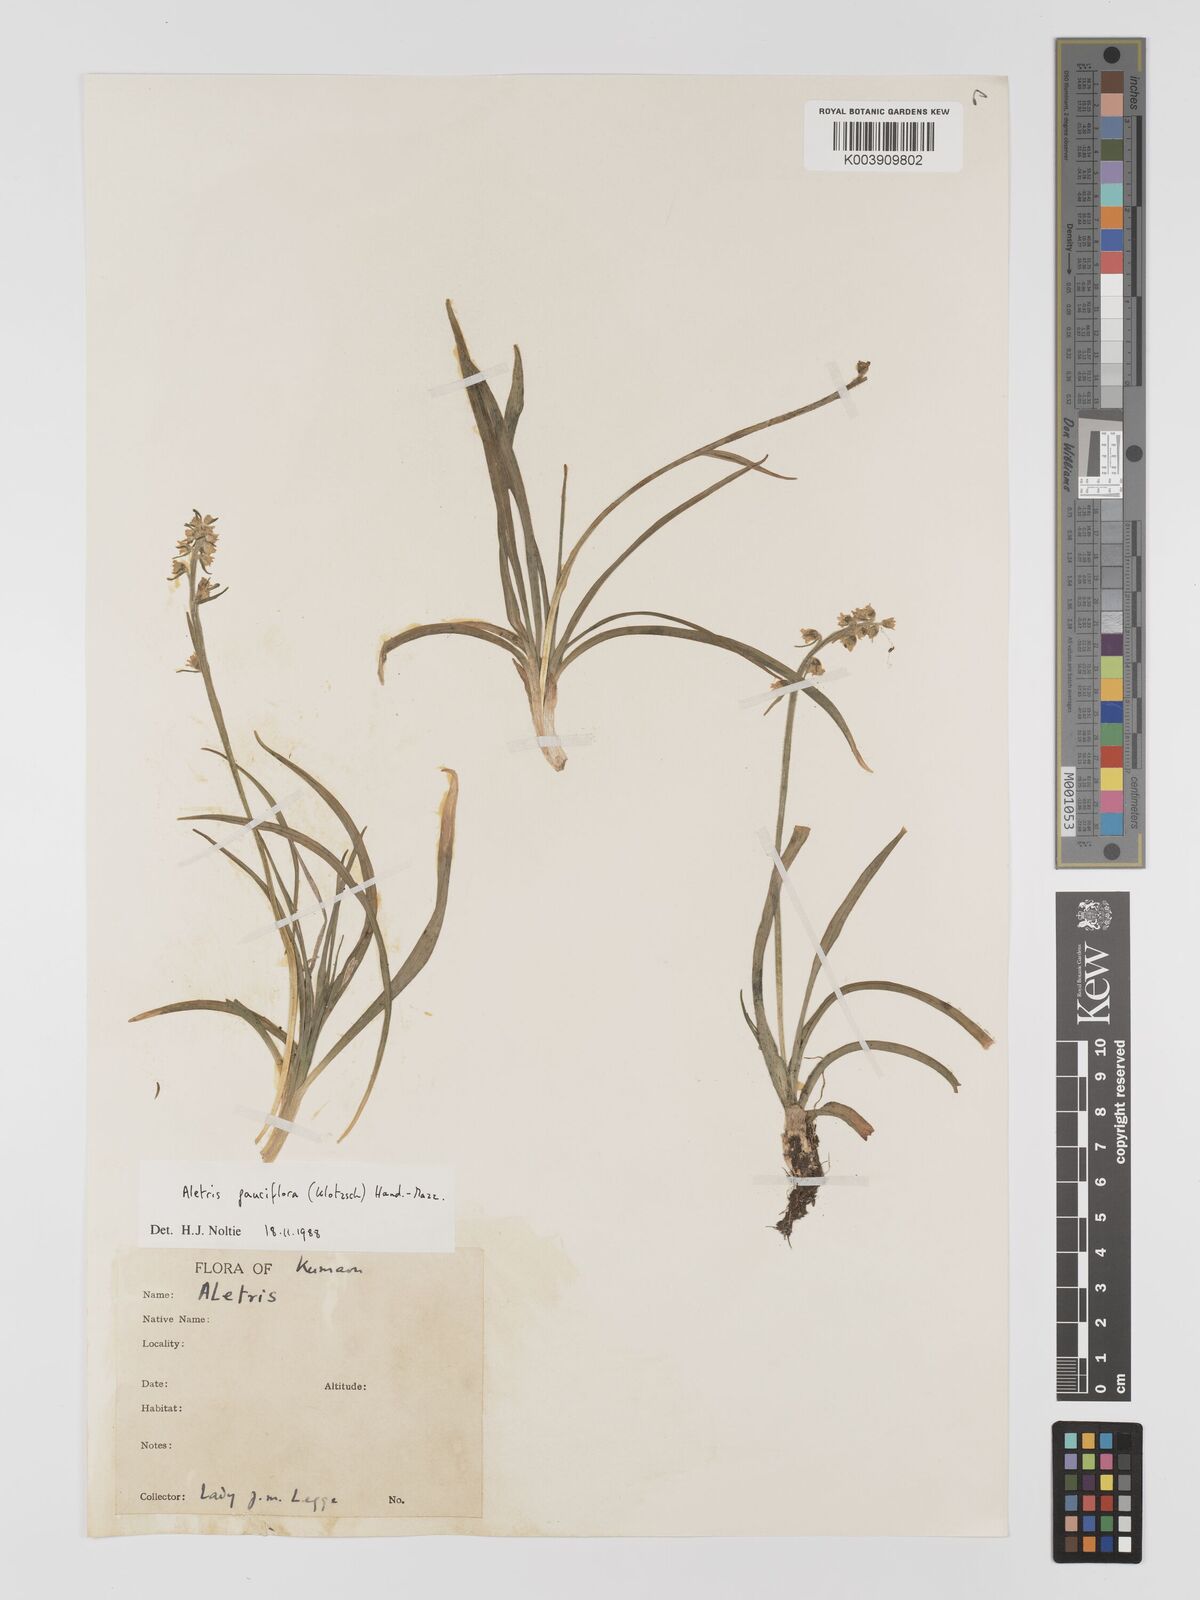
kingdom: Plantae
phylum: Tracheophyta
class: Liliopsida
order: Dioscoreales
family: Nartheciaceae
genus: Aletris
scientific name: Aletris pauciflora
